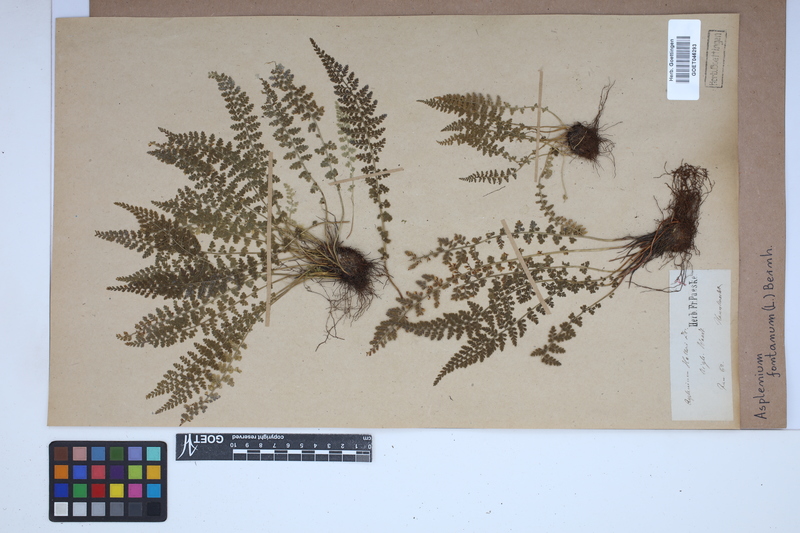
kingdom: Plantae
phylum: Tracheophyta
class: Polypodiopsida
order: Polypodiales
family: Aspleniaceae
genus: Asplenium
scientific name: Asplenium fontanum
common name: Fountain spleenwort
